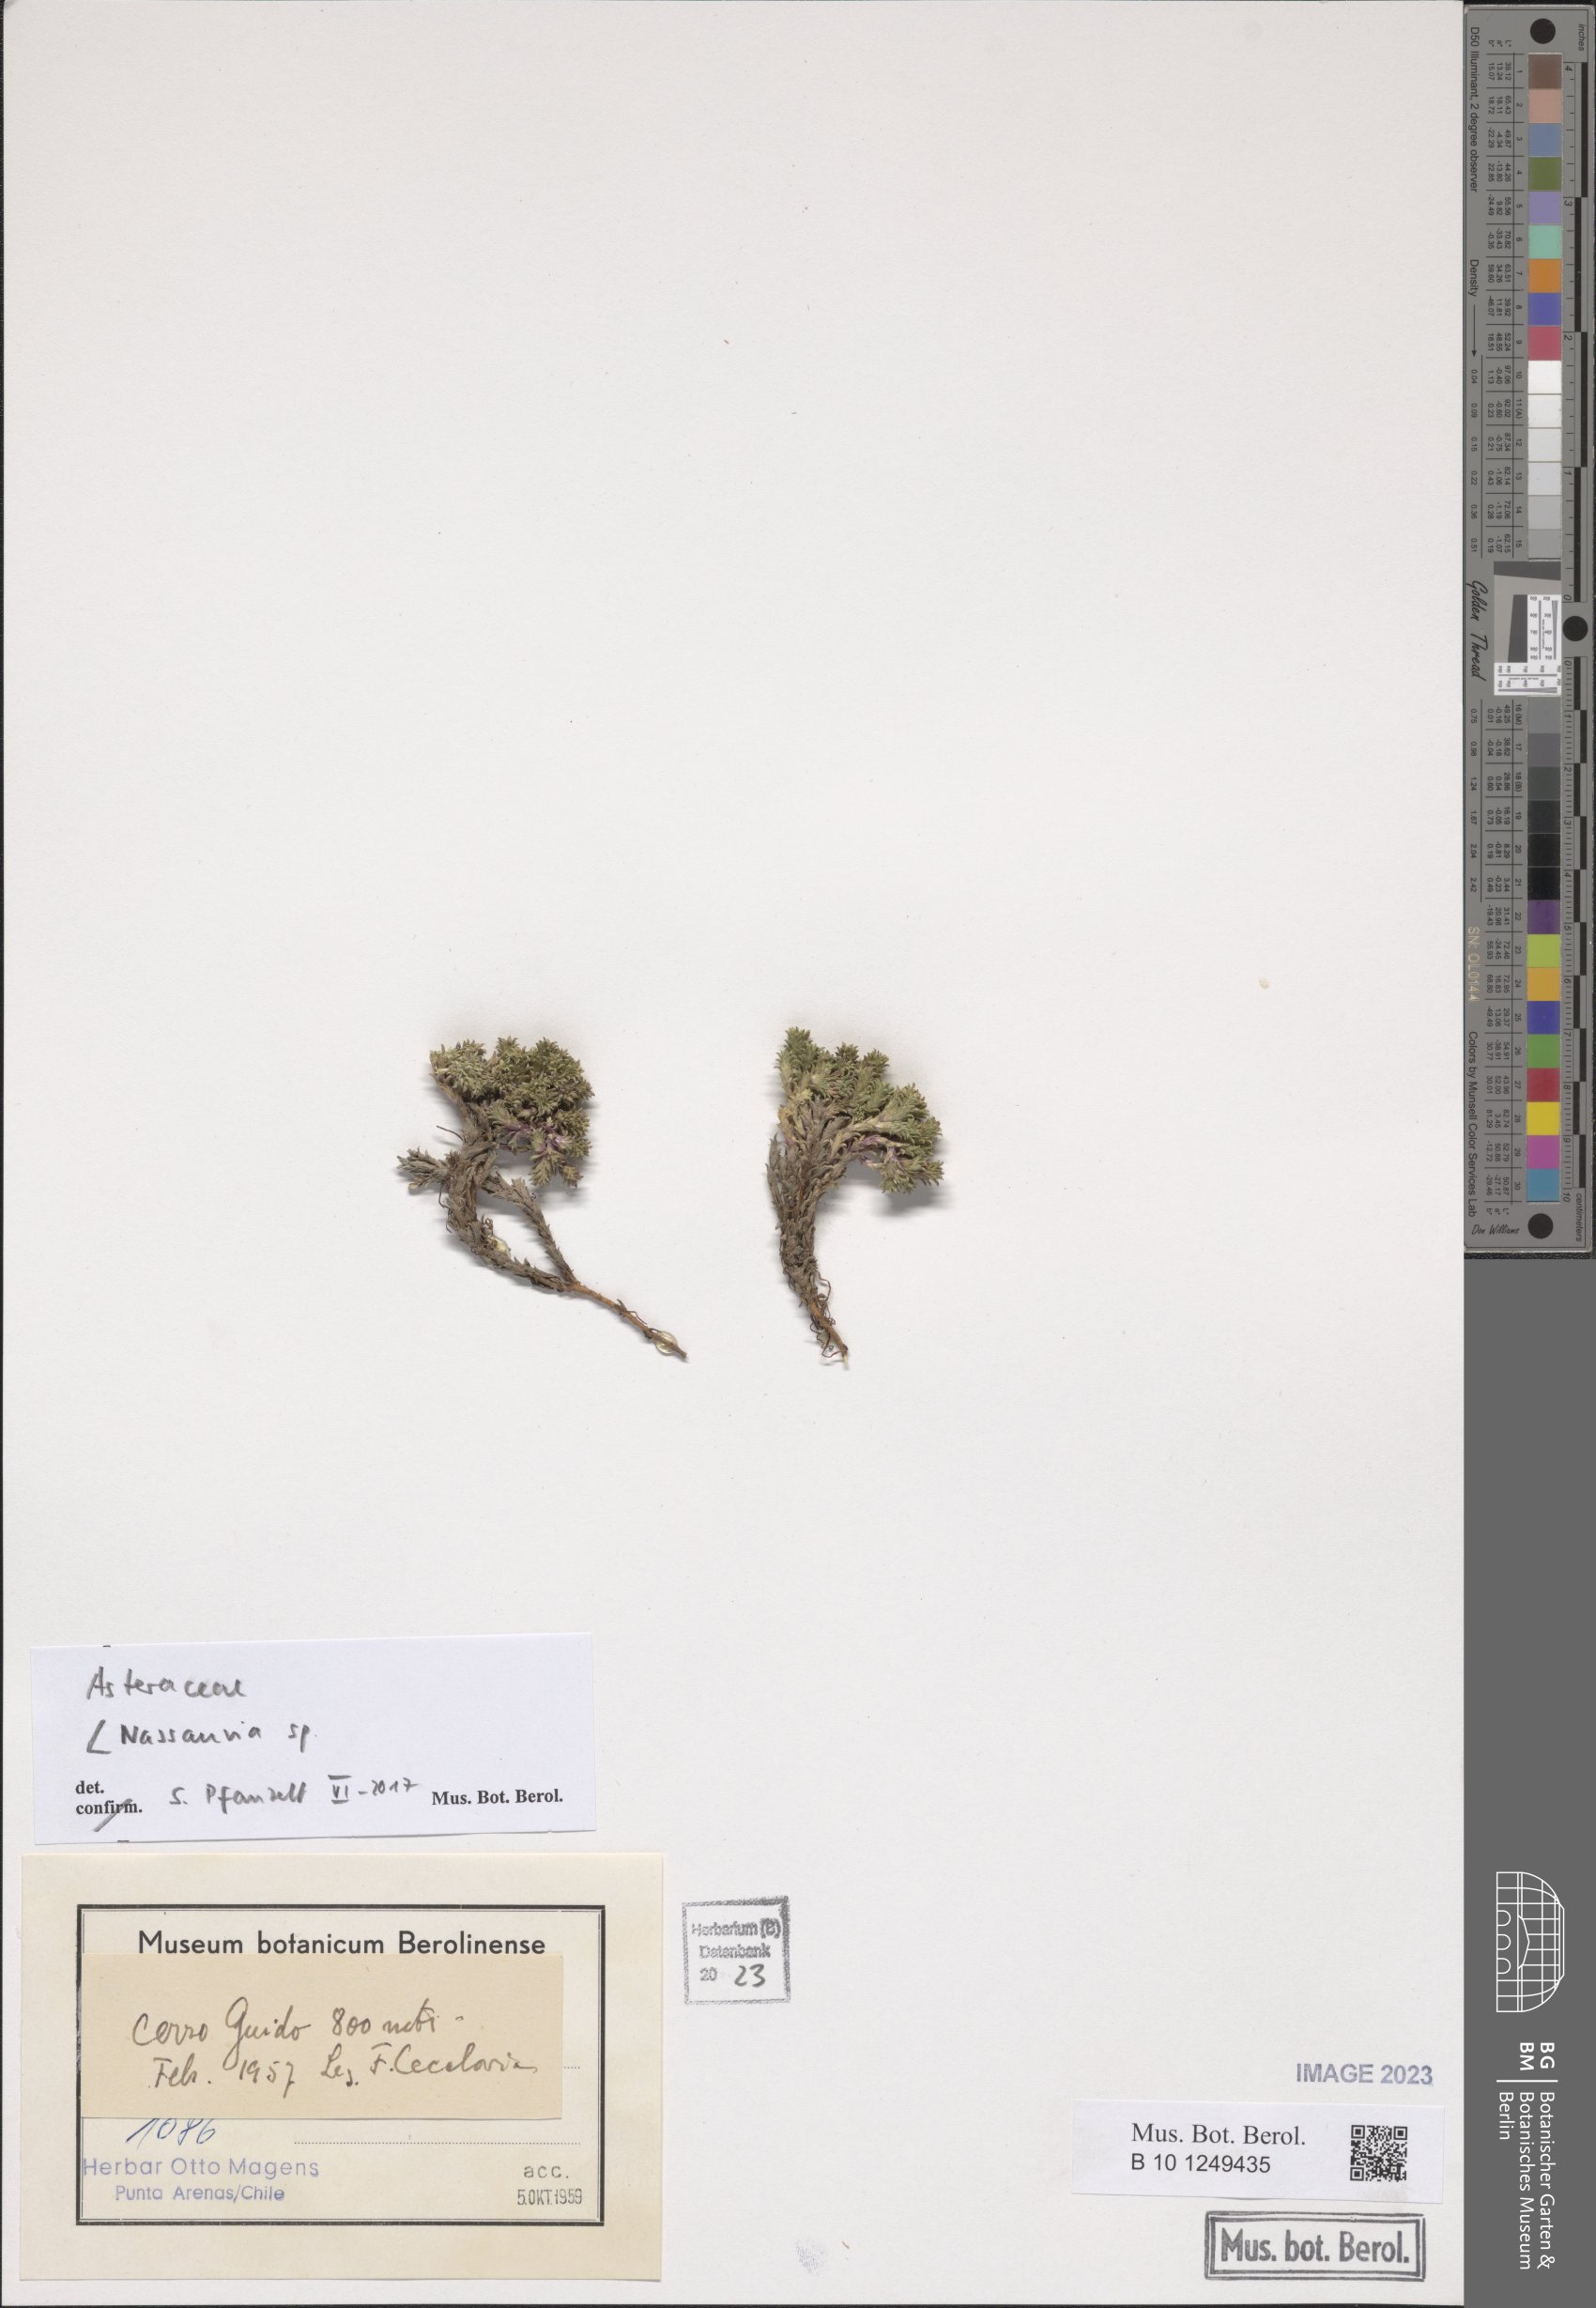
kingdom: Plantae
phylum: Tracheophyta
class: Magnoliopsida
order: Asterales
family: Asteraceae
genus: Nassauvia
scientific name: Nassauvia
